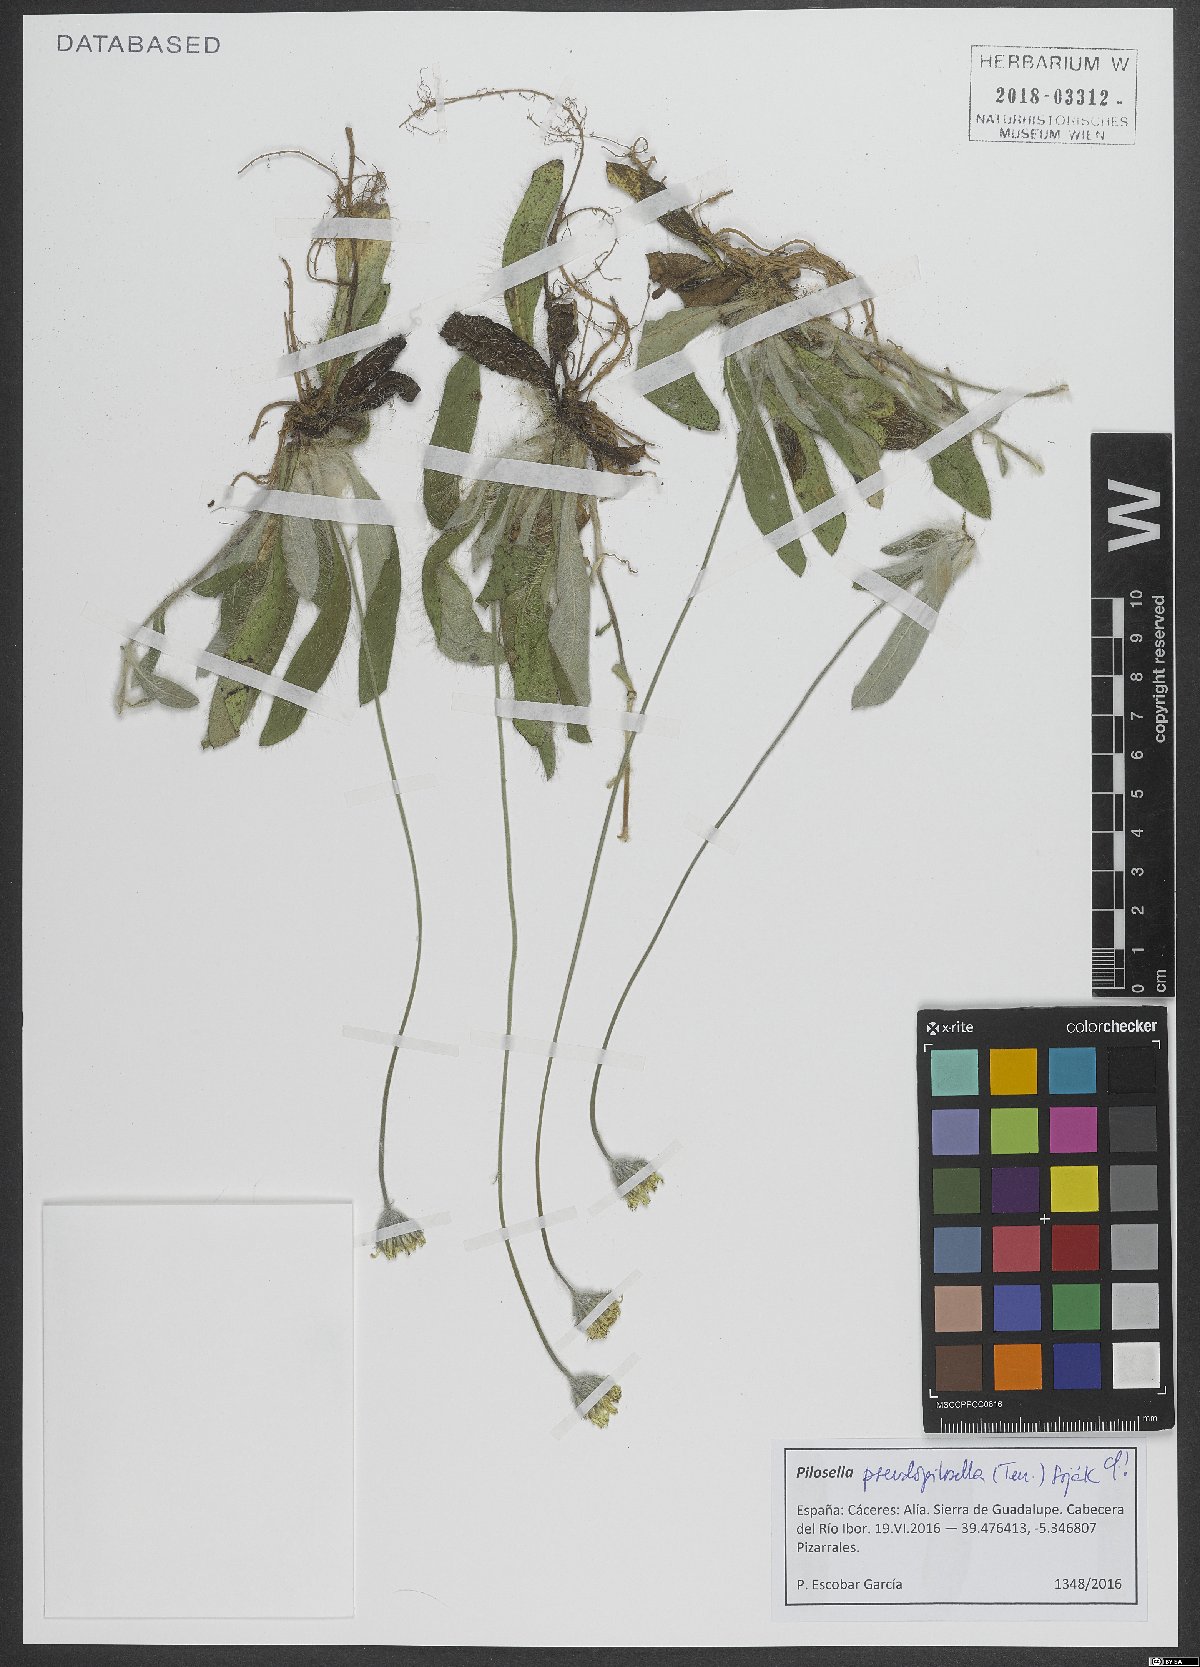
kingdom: Plantae
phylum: Tracheophyta
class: Magnoliopsida
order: Asterales
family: Asteraceae
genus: Pilosella
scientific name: Pilosella pseudopilosella
